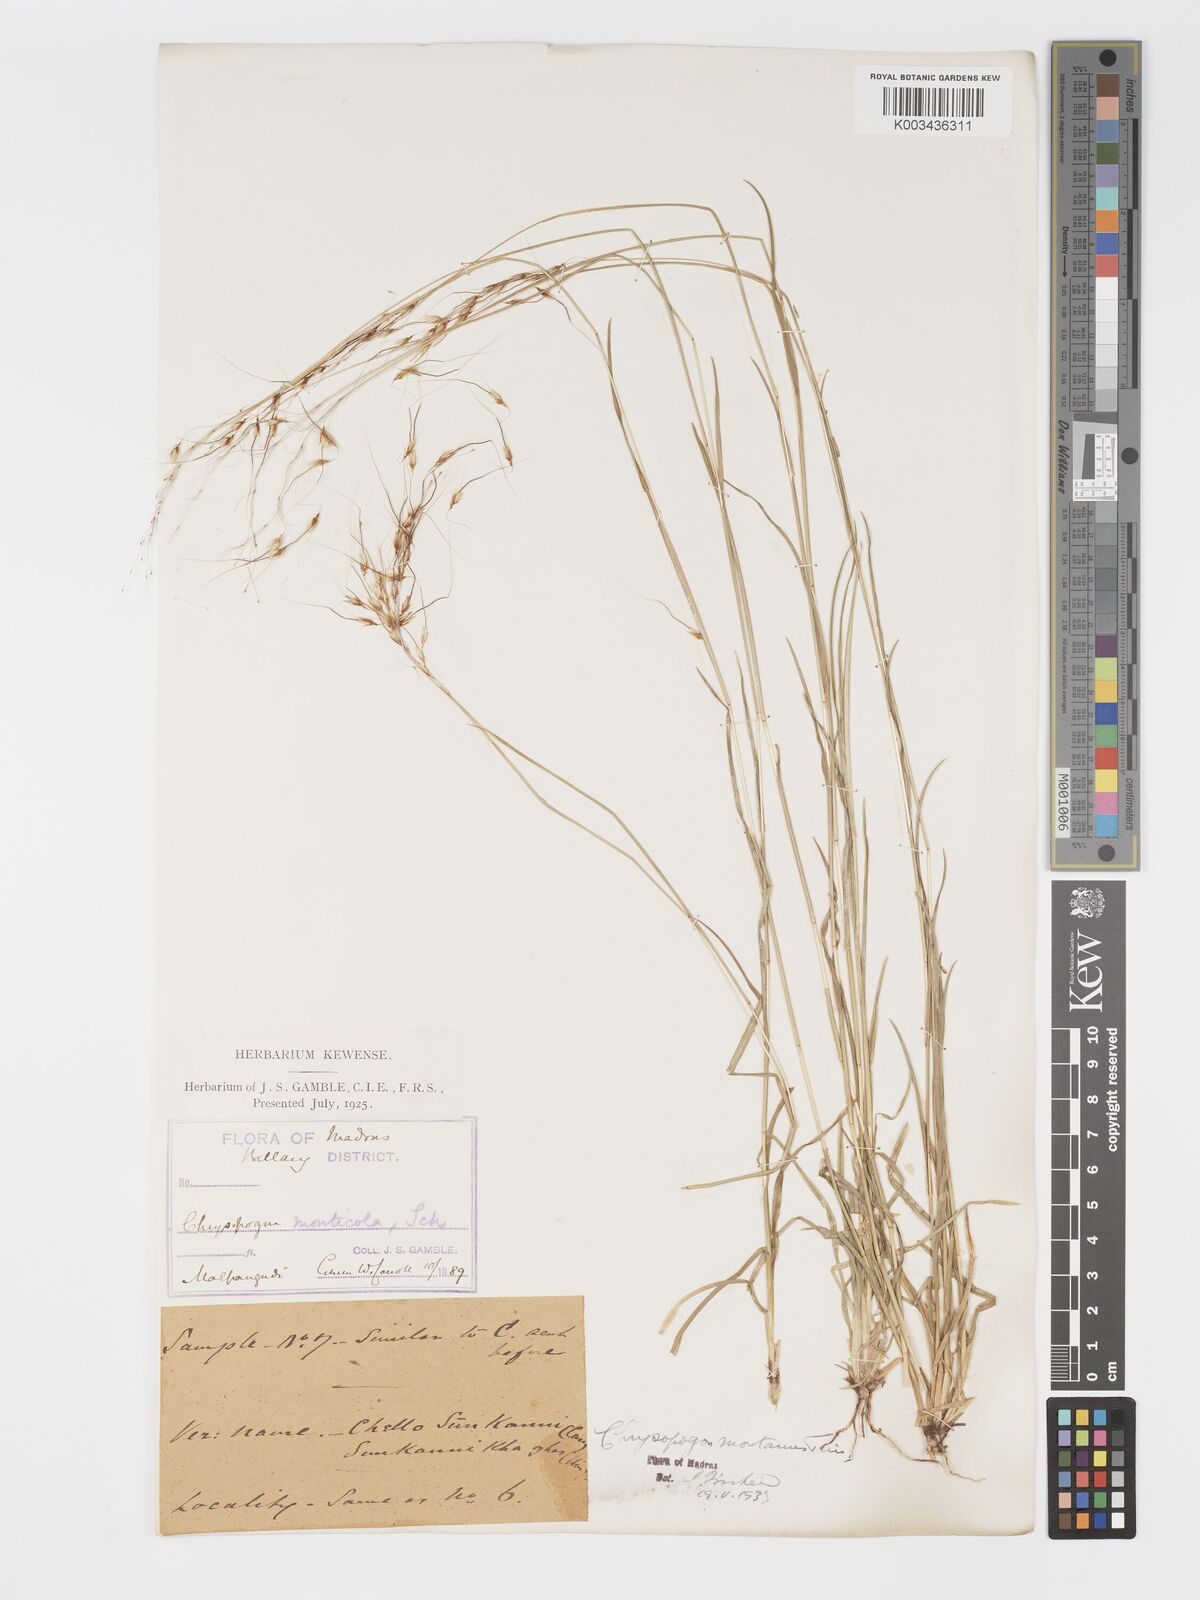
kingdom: Plantae
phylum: Tracheophyta
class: Liliopsida
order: Poales
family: Poaceae
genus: Chrysopogon
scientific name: Chrysopogon fulvus
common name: Red false beardgrass
